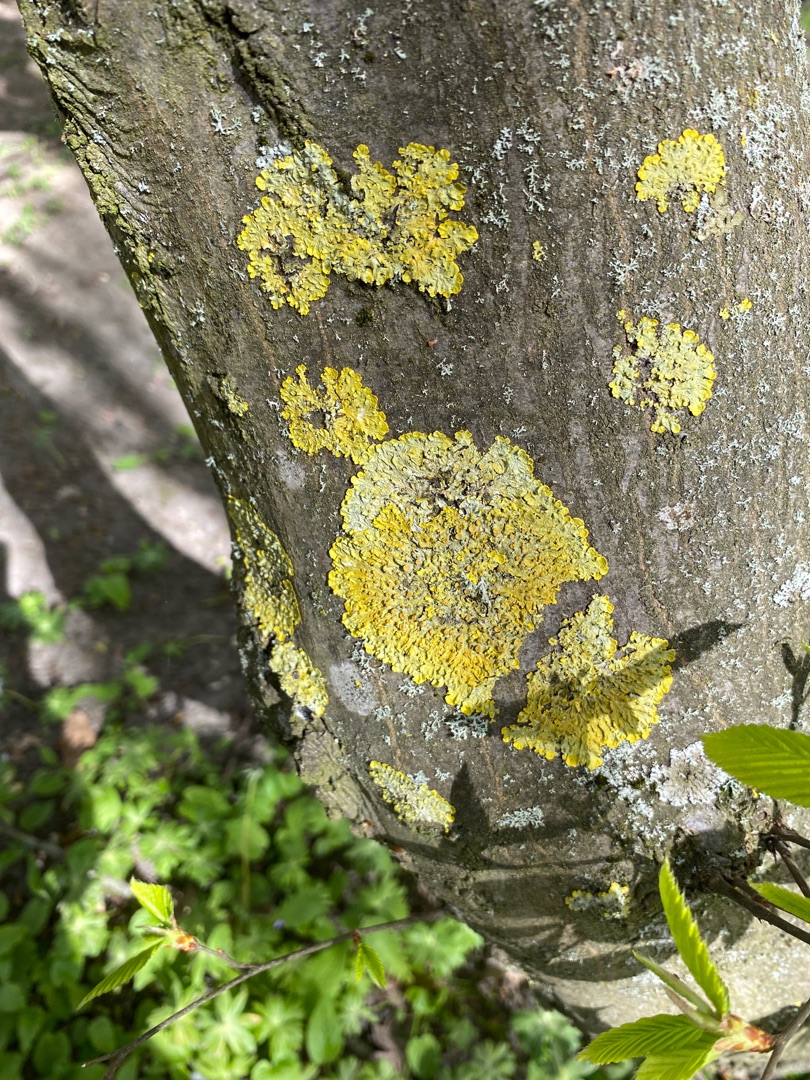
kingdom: Fungi
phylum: Ascomycota
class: Lecanoromycetes
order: Teloschistales
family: Teloschistaceae
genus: Xanthoria
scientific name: Xanthoria parietina
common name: Almindelig væggelav
